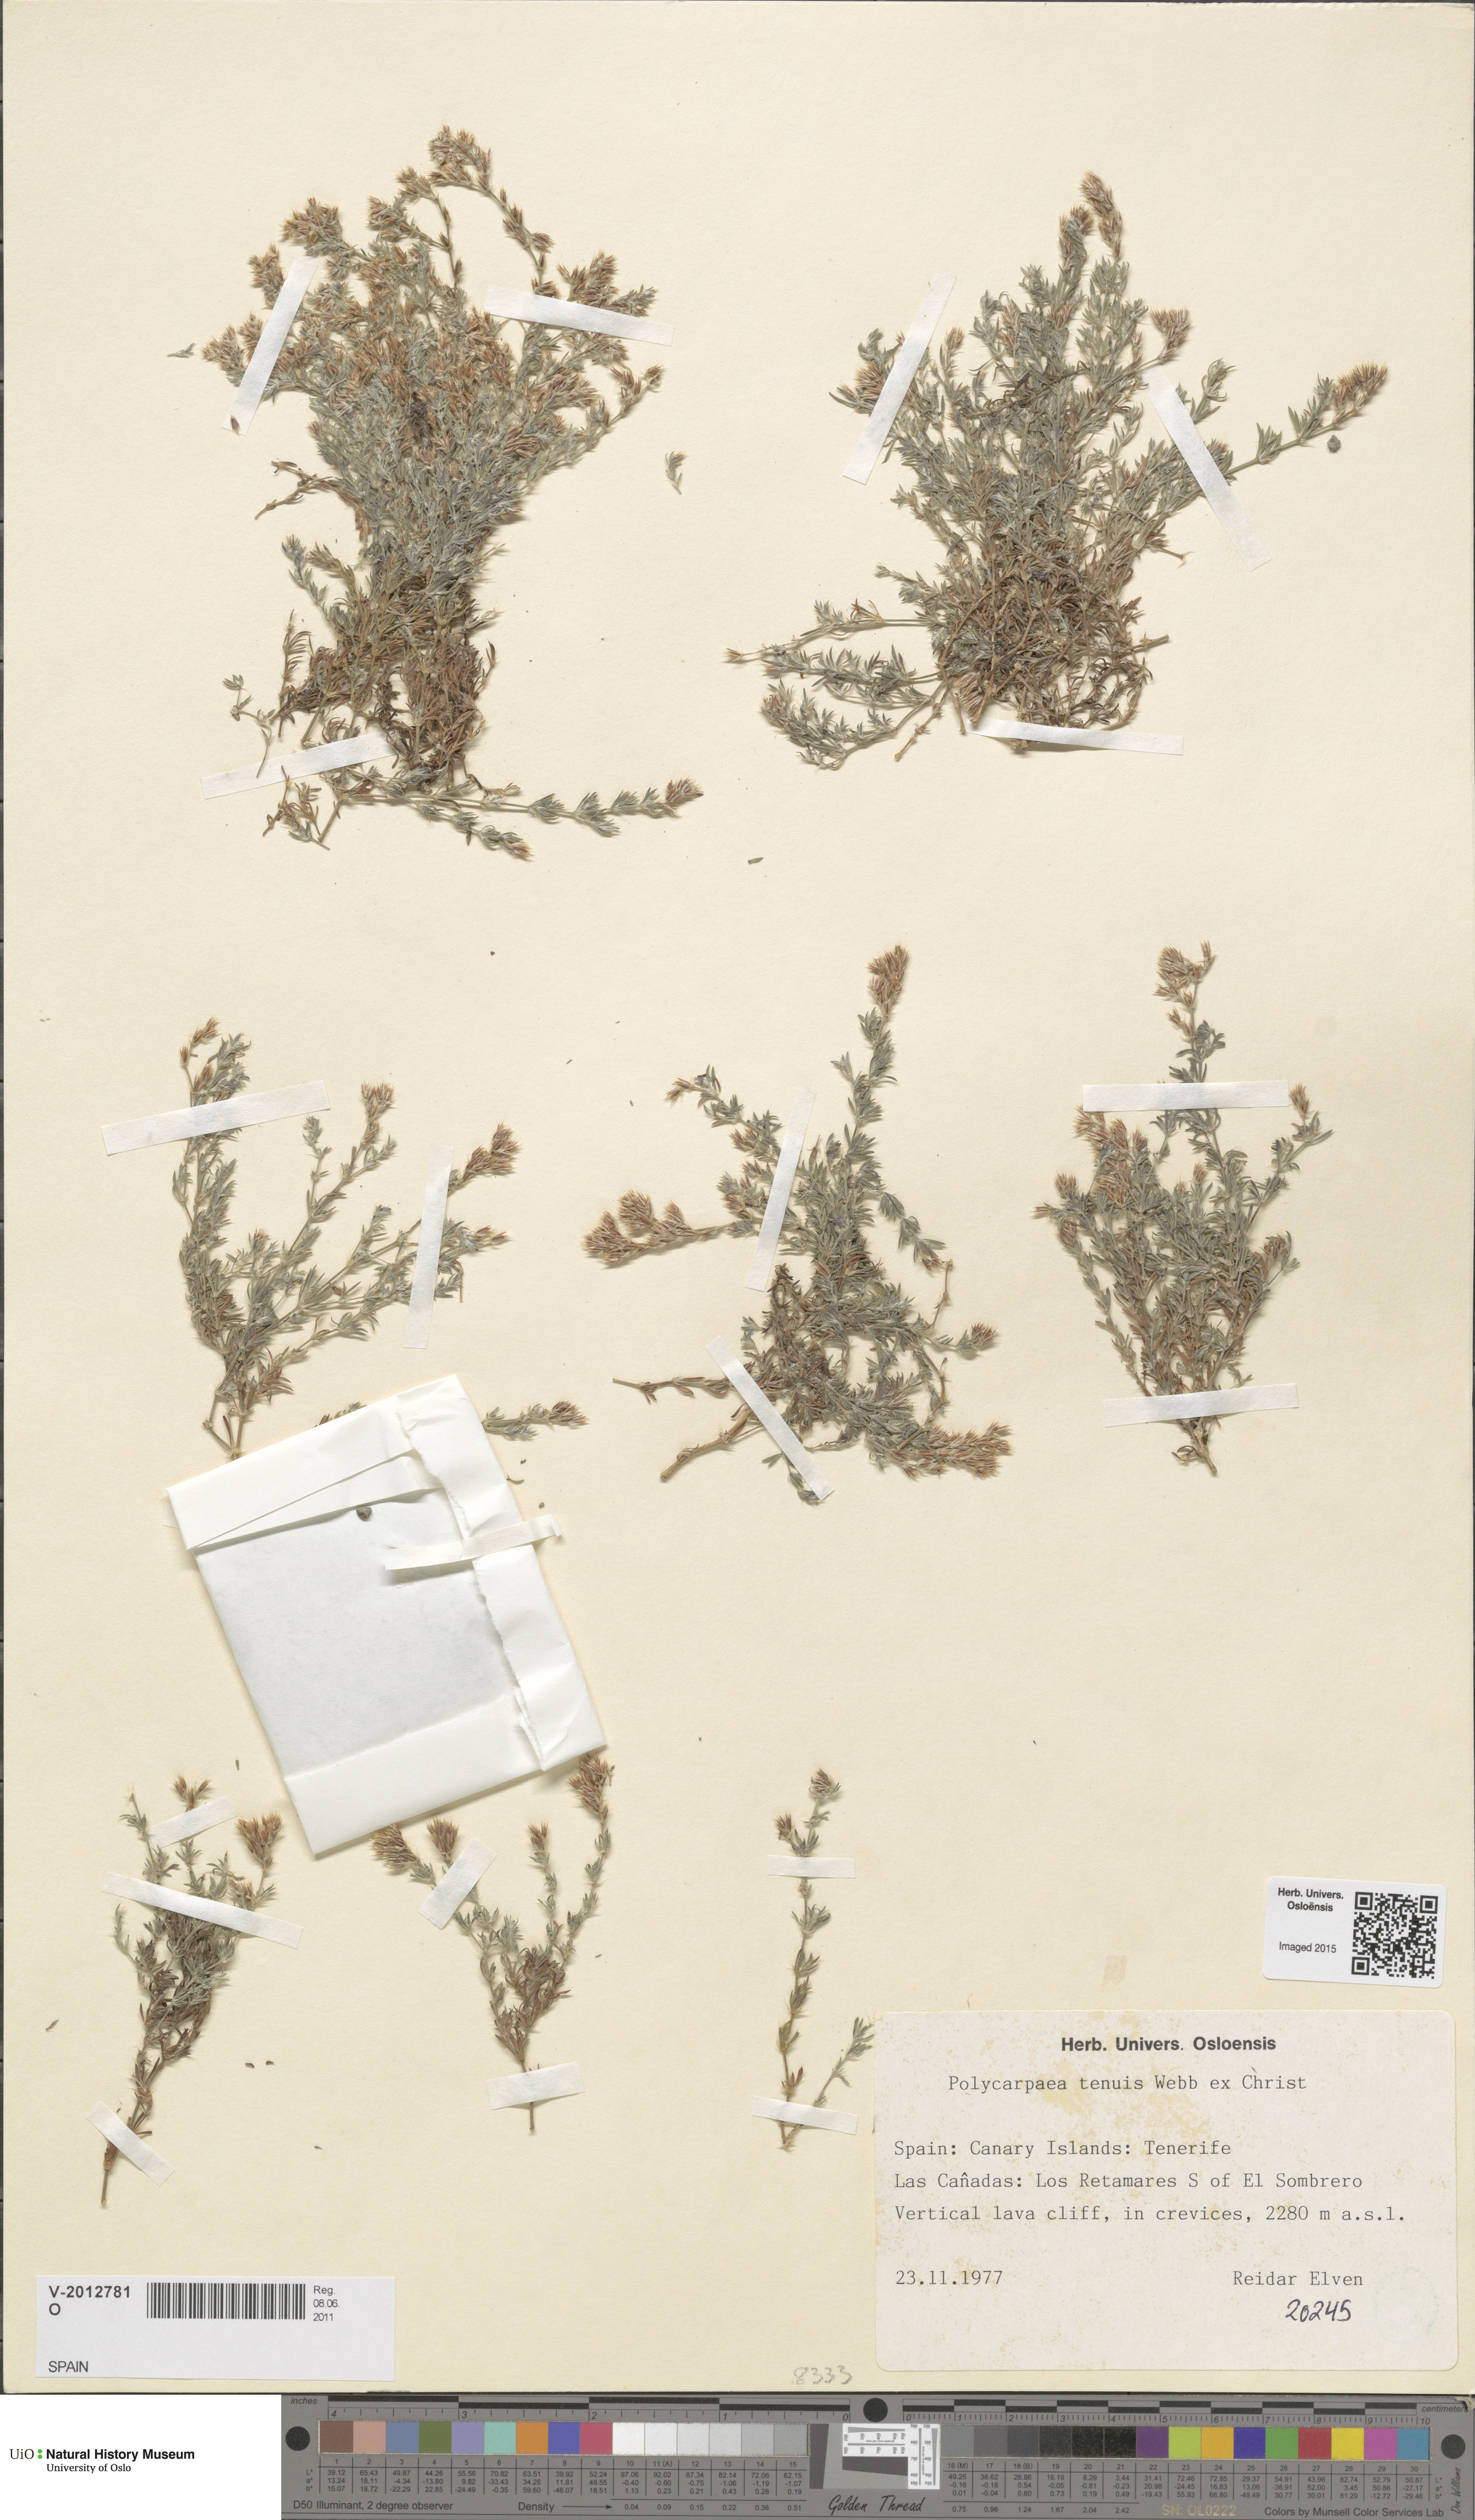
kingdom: Plantae
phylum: Tracheophyta
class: Magnoliopsida
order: Caryophyllales
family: Caryophyllaceae
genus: Polycarpaea
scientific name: Polycarpaea tenuis
